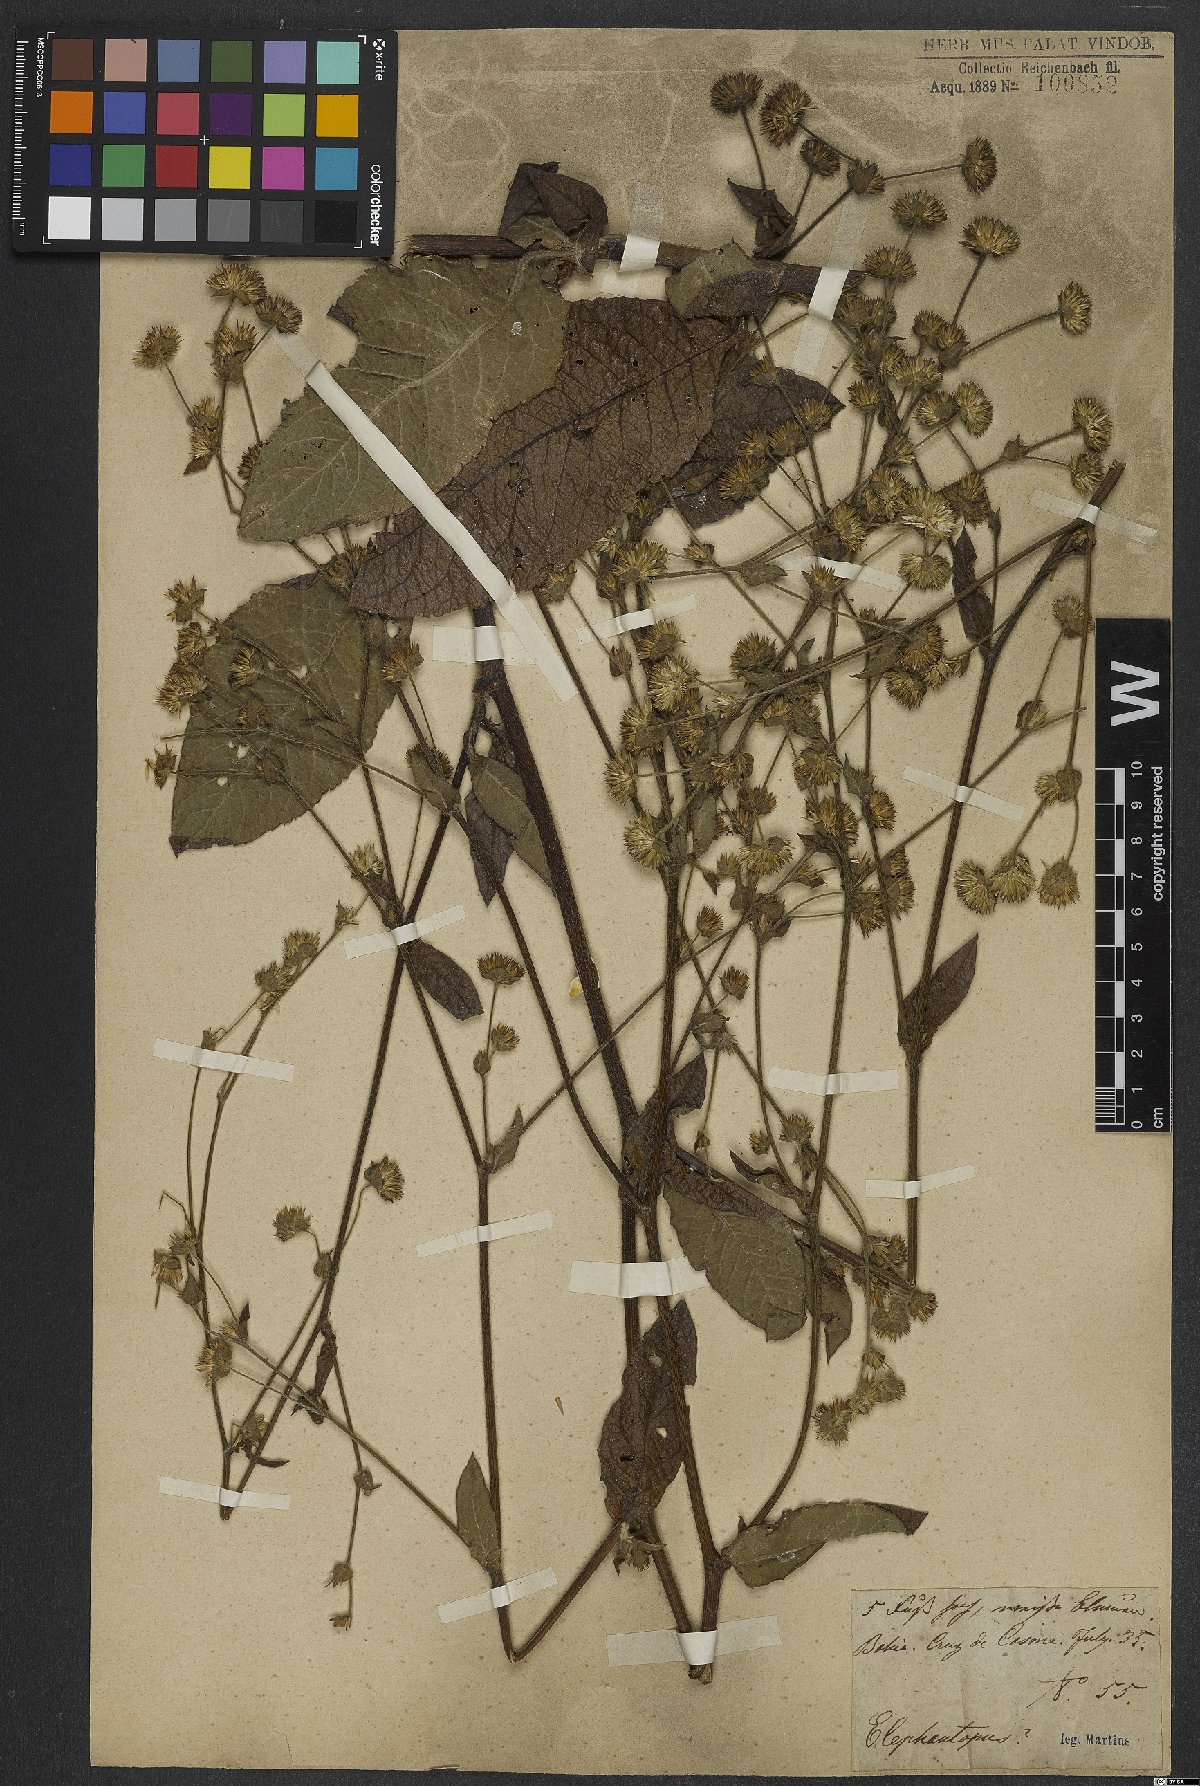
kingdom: Plantae
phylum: Tracheophyta
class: Magnoliopsida
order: Asterales
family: Asteraceae
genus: Elephantopus
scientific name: Elephantopus
